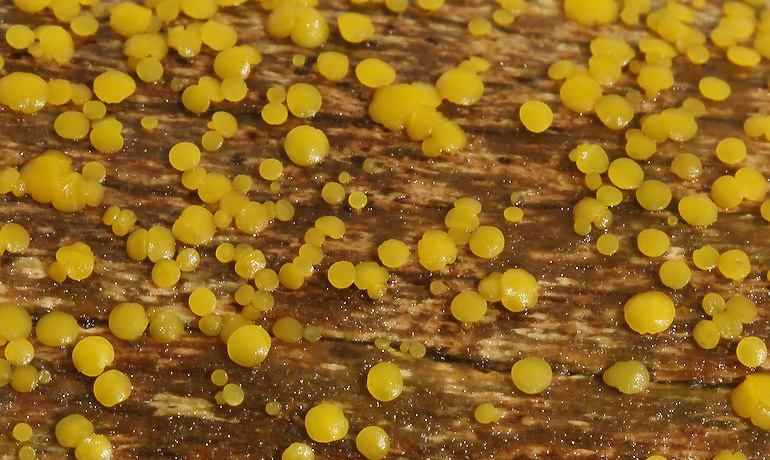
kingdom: Fungi
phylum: Ascomycota
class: Leotiomycetes
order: Helotiales
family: Pezizellaceae
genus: Calycina
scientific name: Calycina citrina
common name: almindelig gulskive
